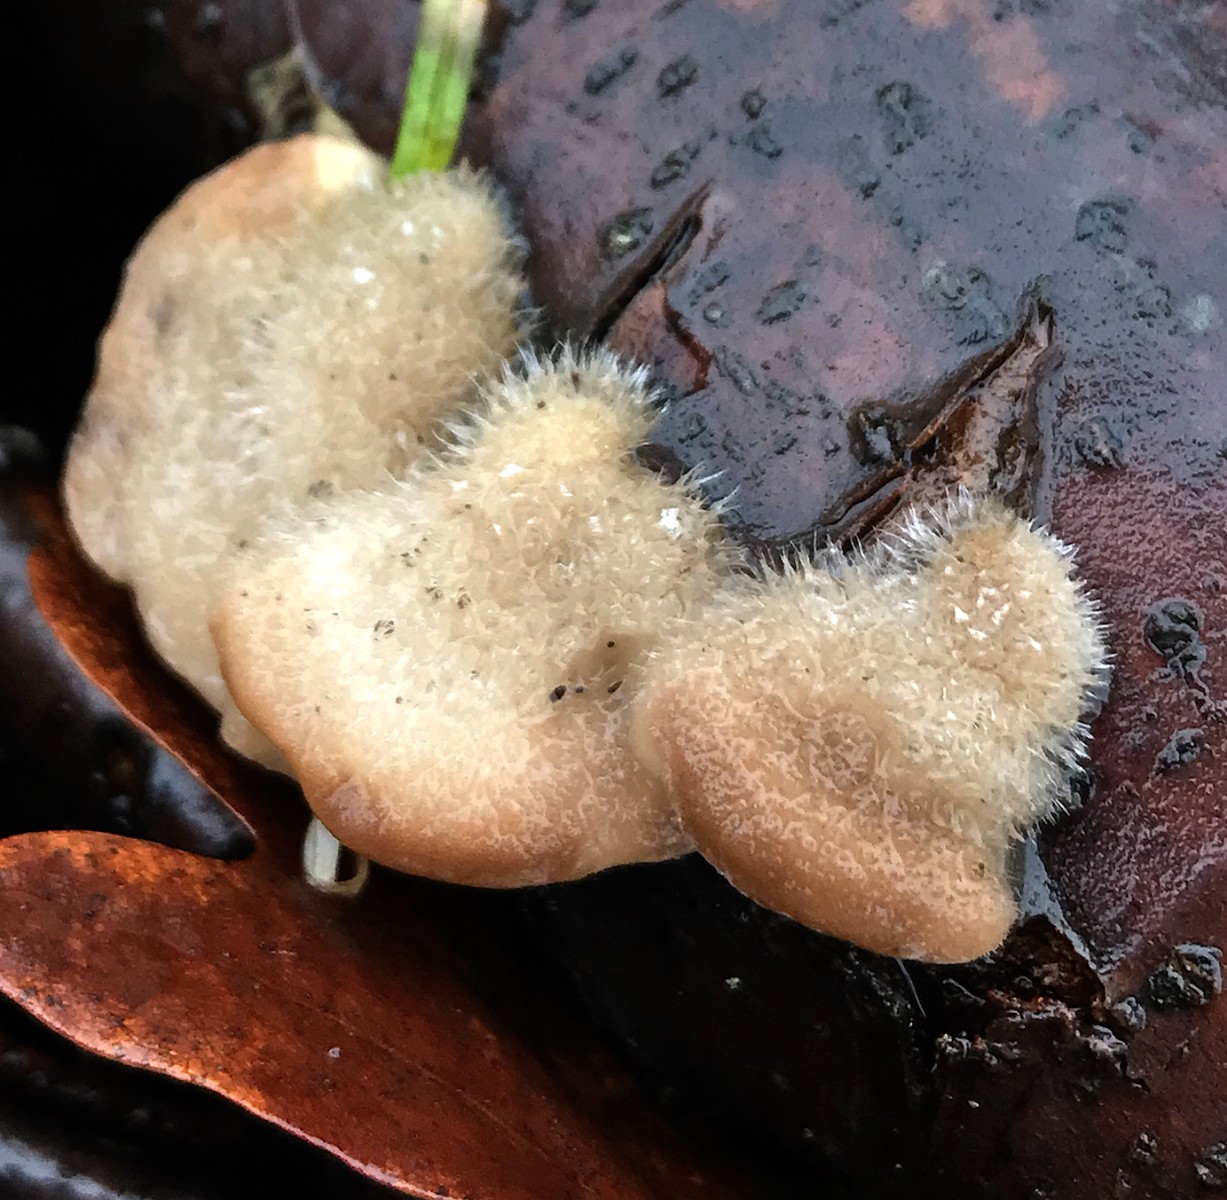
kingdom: Fungi
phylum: Basidiomycota
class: Agaricomycetes
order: Polyporales
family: Polyporaceae
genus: Trametes
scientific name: Trametes hirsuta
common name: håret læderporesvamp
